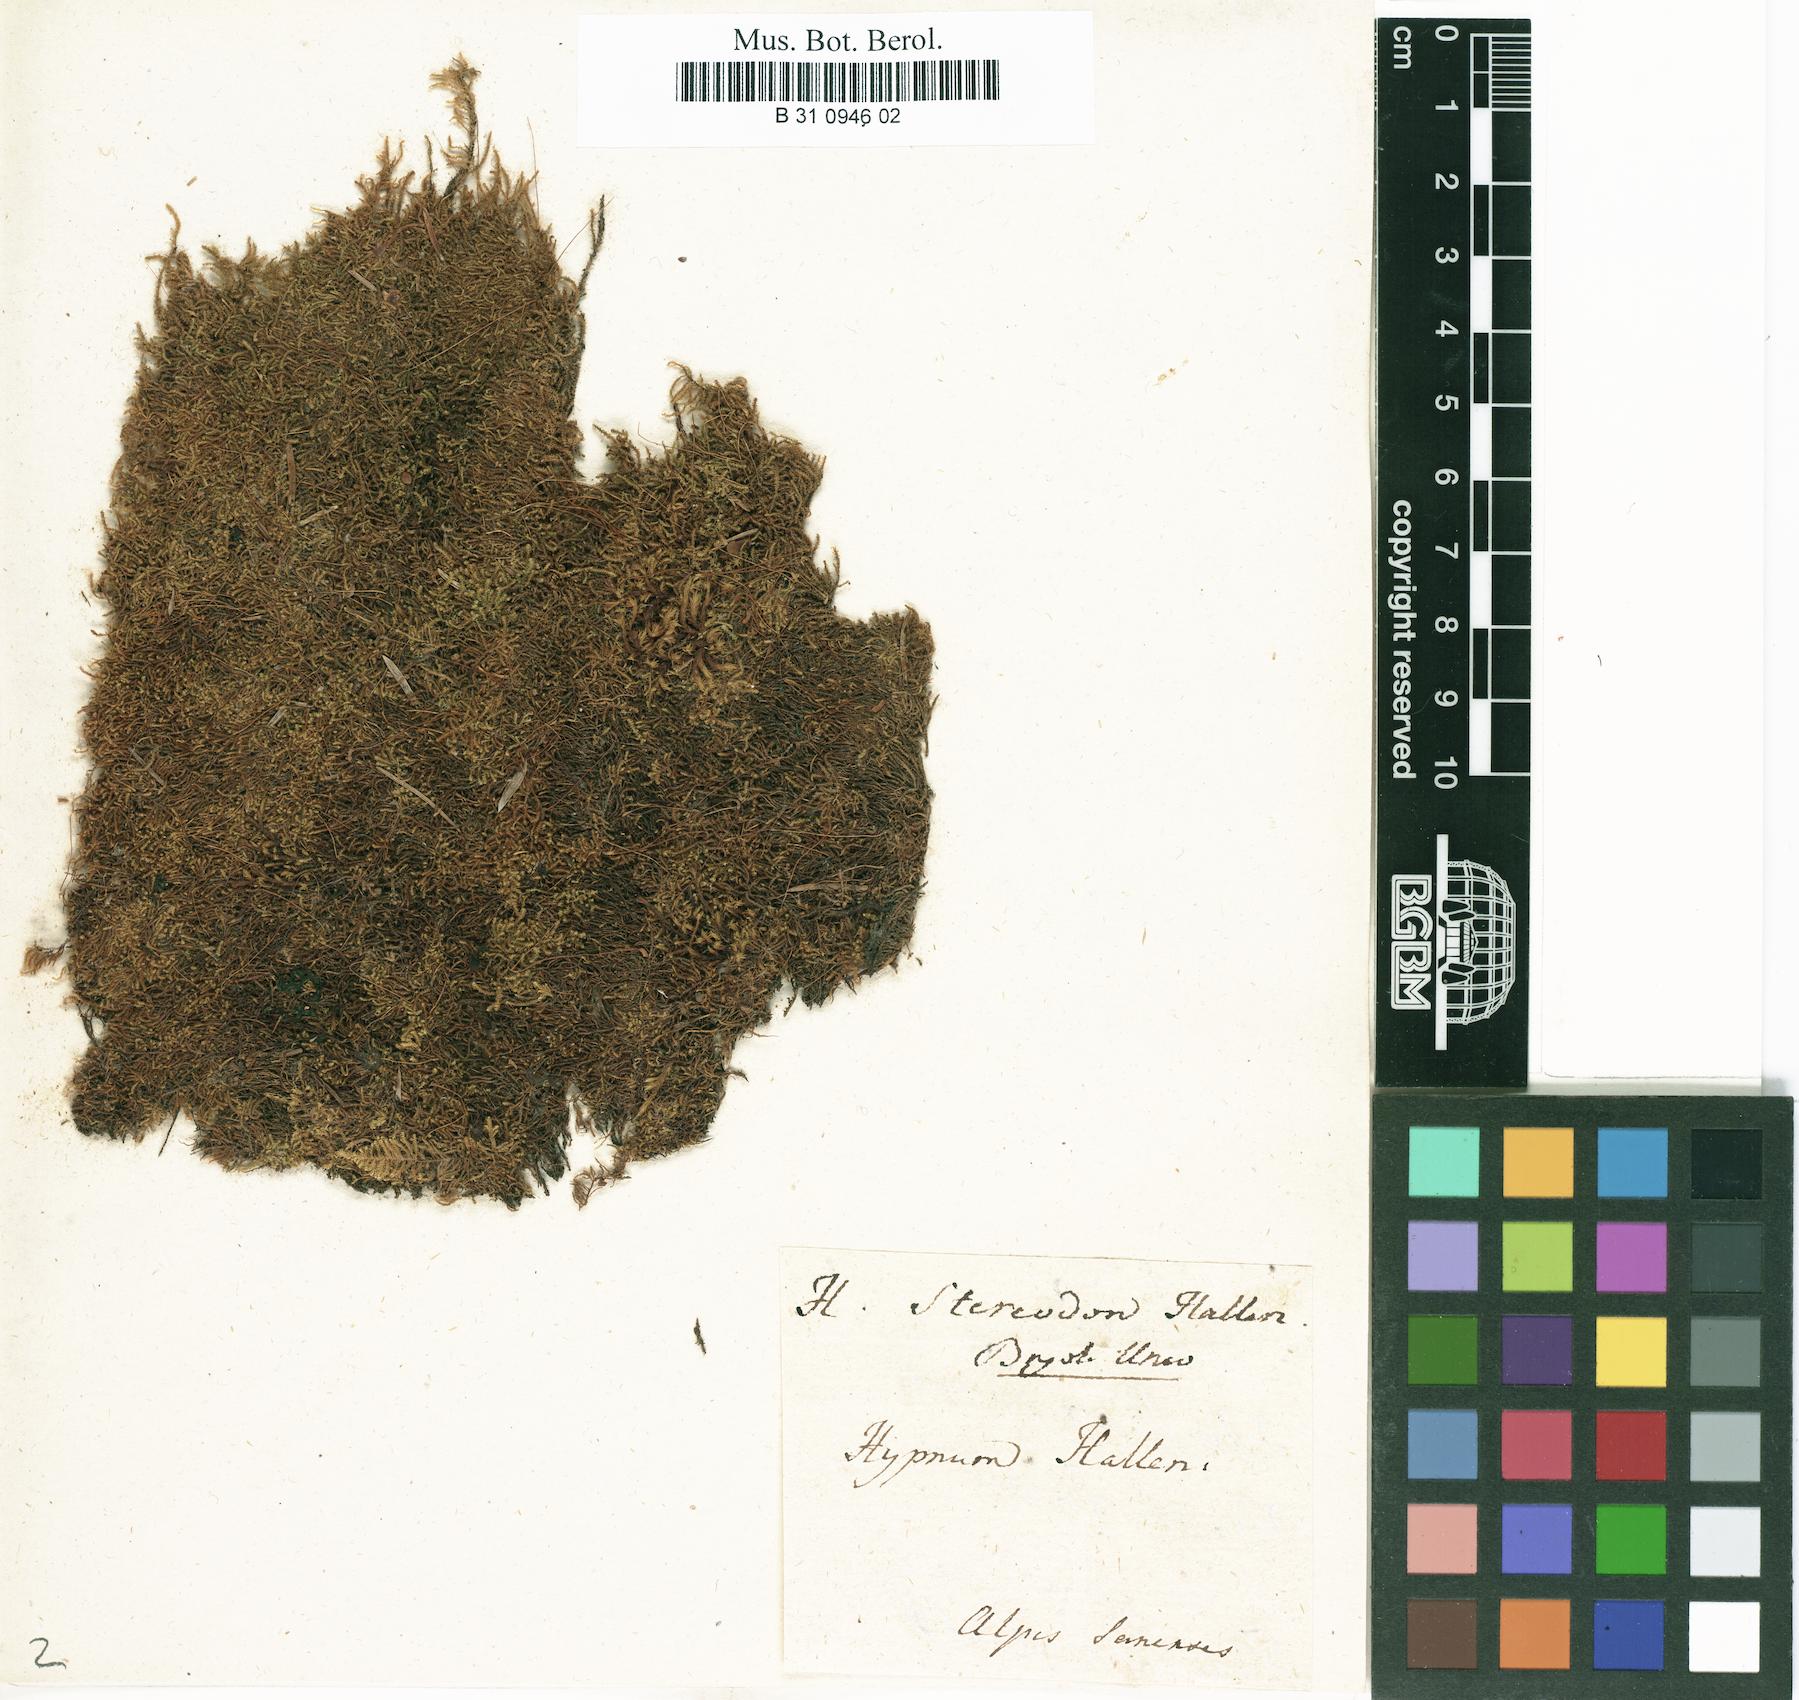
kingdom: Plantae
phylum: Bryophyta
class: Bryopsida
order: Hypnales
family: Amblystegiaceae
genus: Campylophyllum
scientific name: Campylophyllum halleri
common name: Haller's fine wet moss
